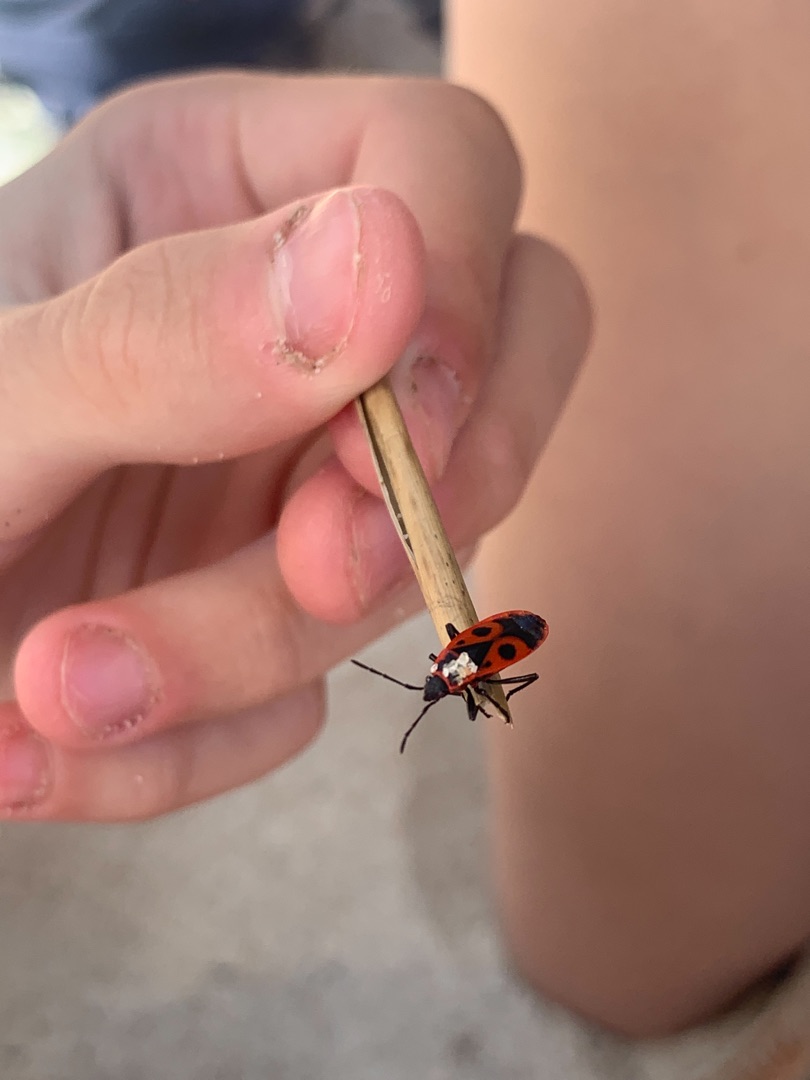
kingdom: Animalia
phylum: Arthropoda
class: Insecta
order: Hemiptera
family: Pyrrhocoridae
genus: Pyrrhocoris
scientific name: Pyrrhocoris apterus
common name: Ildtæge
